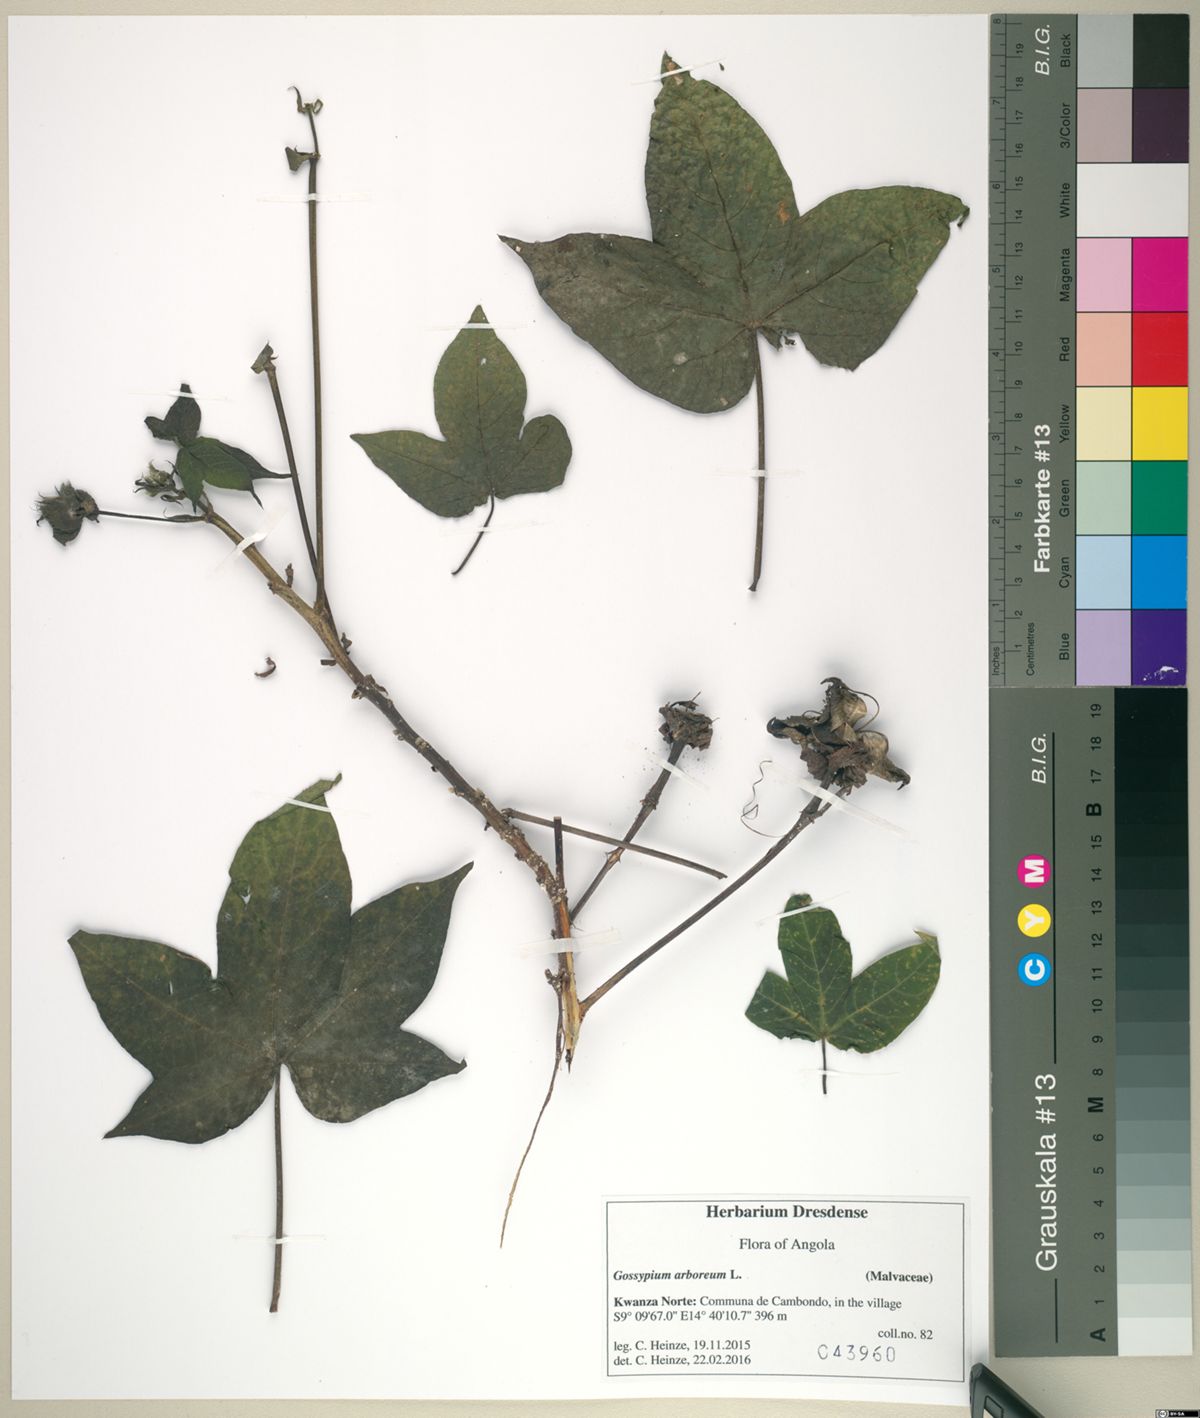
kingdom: Plantae
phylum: Tracheophyta
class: Magnoliopsida
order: Malvales
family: Malvaceae
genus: Gossypium
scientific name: Gossypium arboreum
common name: Tree cotton
